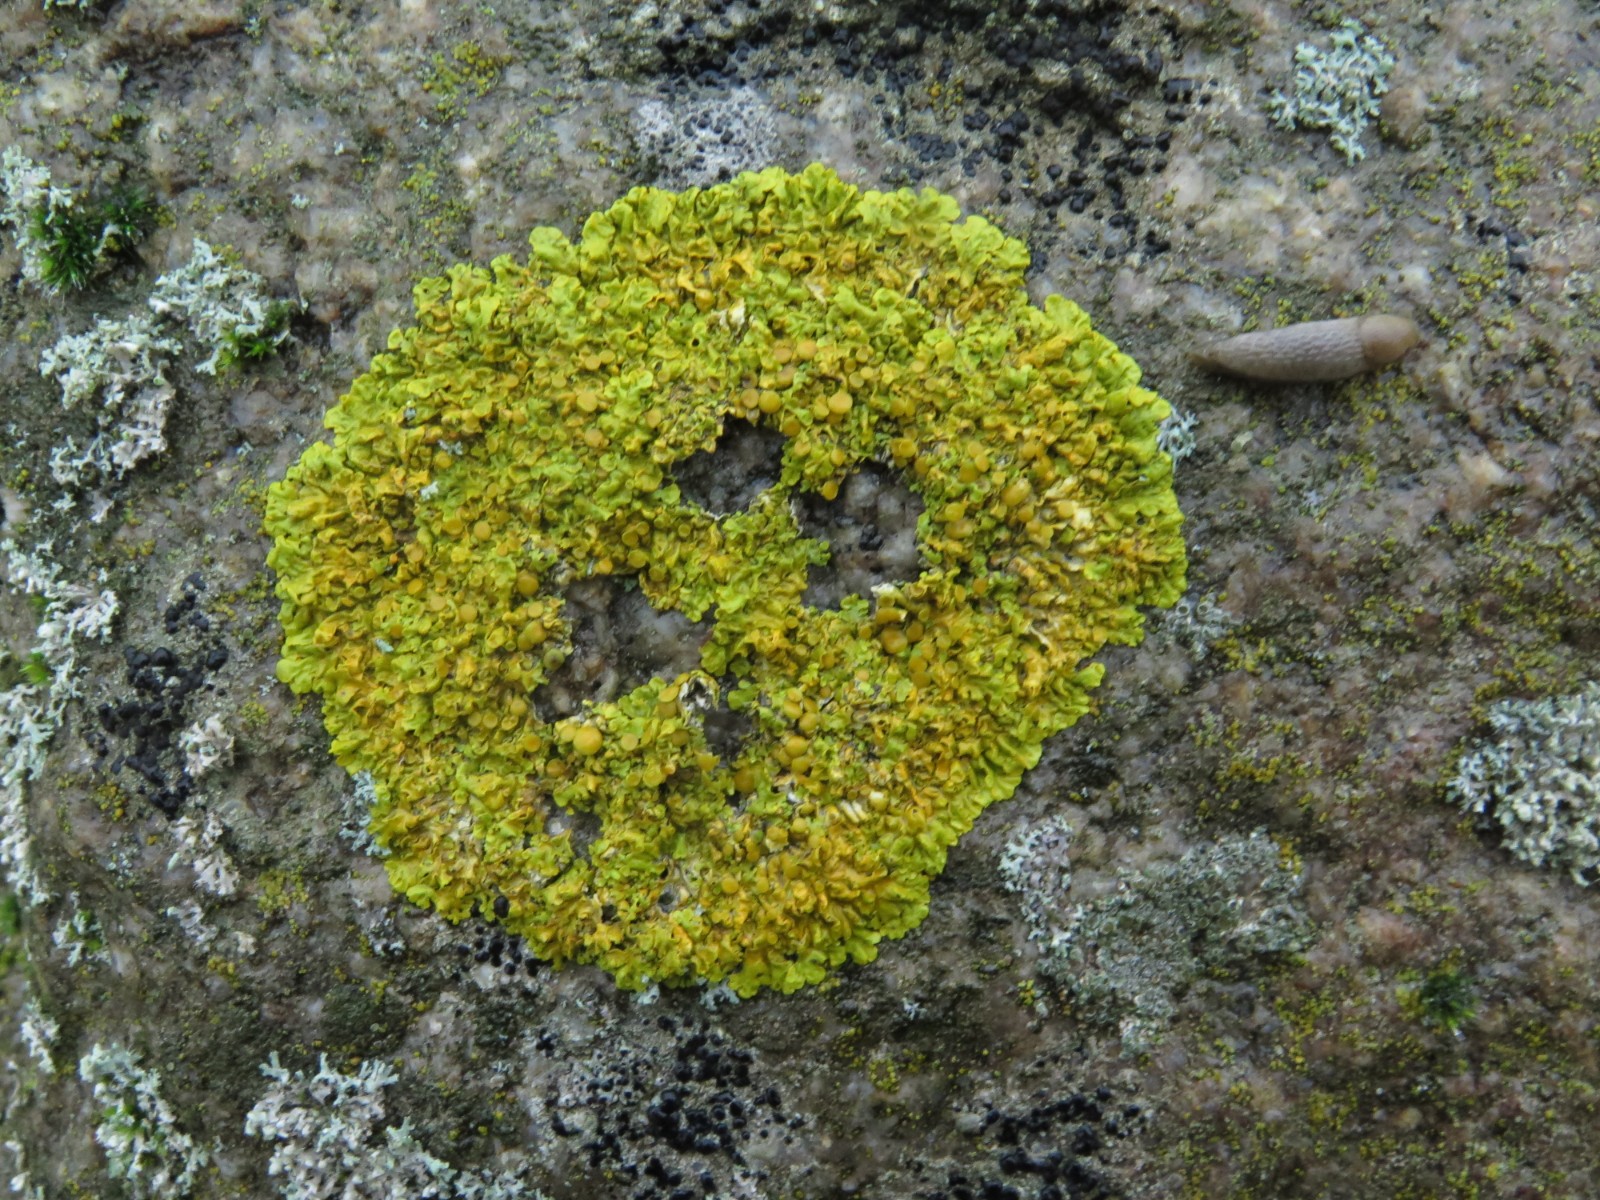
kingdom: Fungi
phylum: Ascomycota
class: Lecanoromycetes
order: Teloschistales
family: Teloschistaceae
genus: Xanthoria
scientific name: Xanthoria parietina
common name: almindelig væggelav
